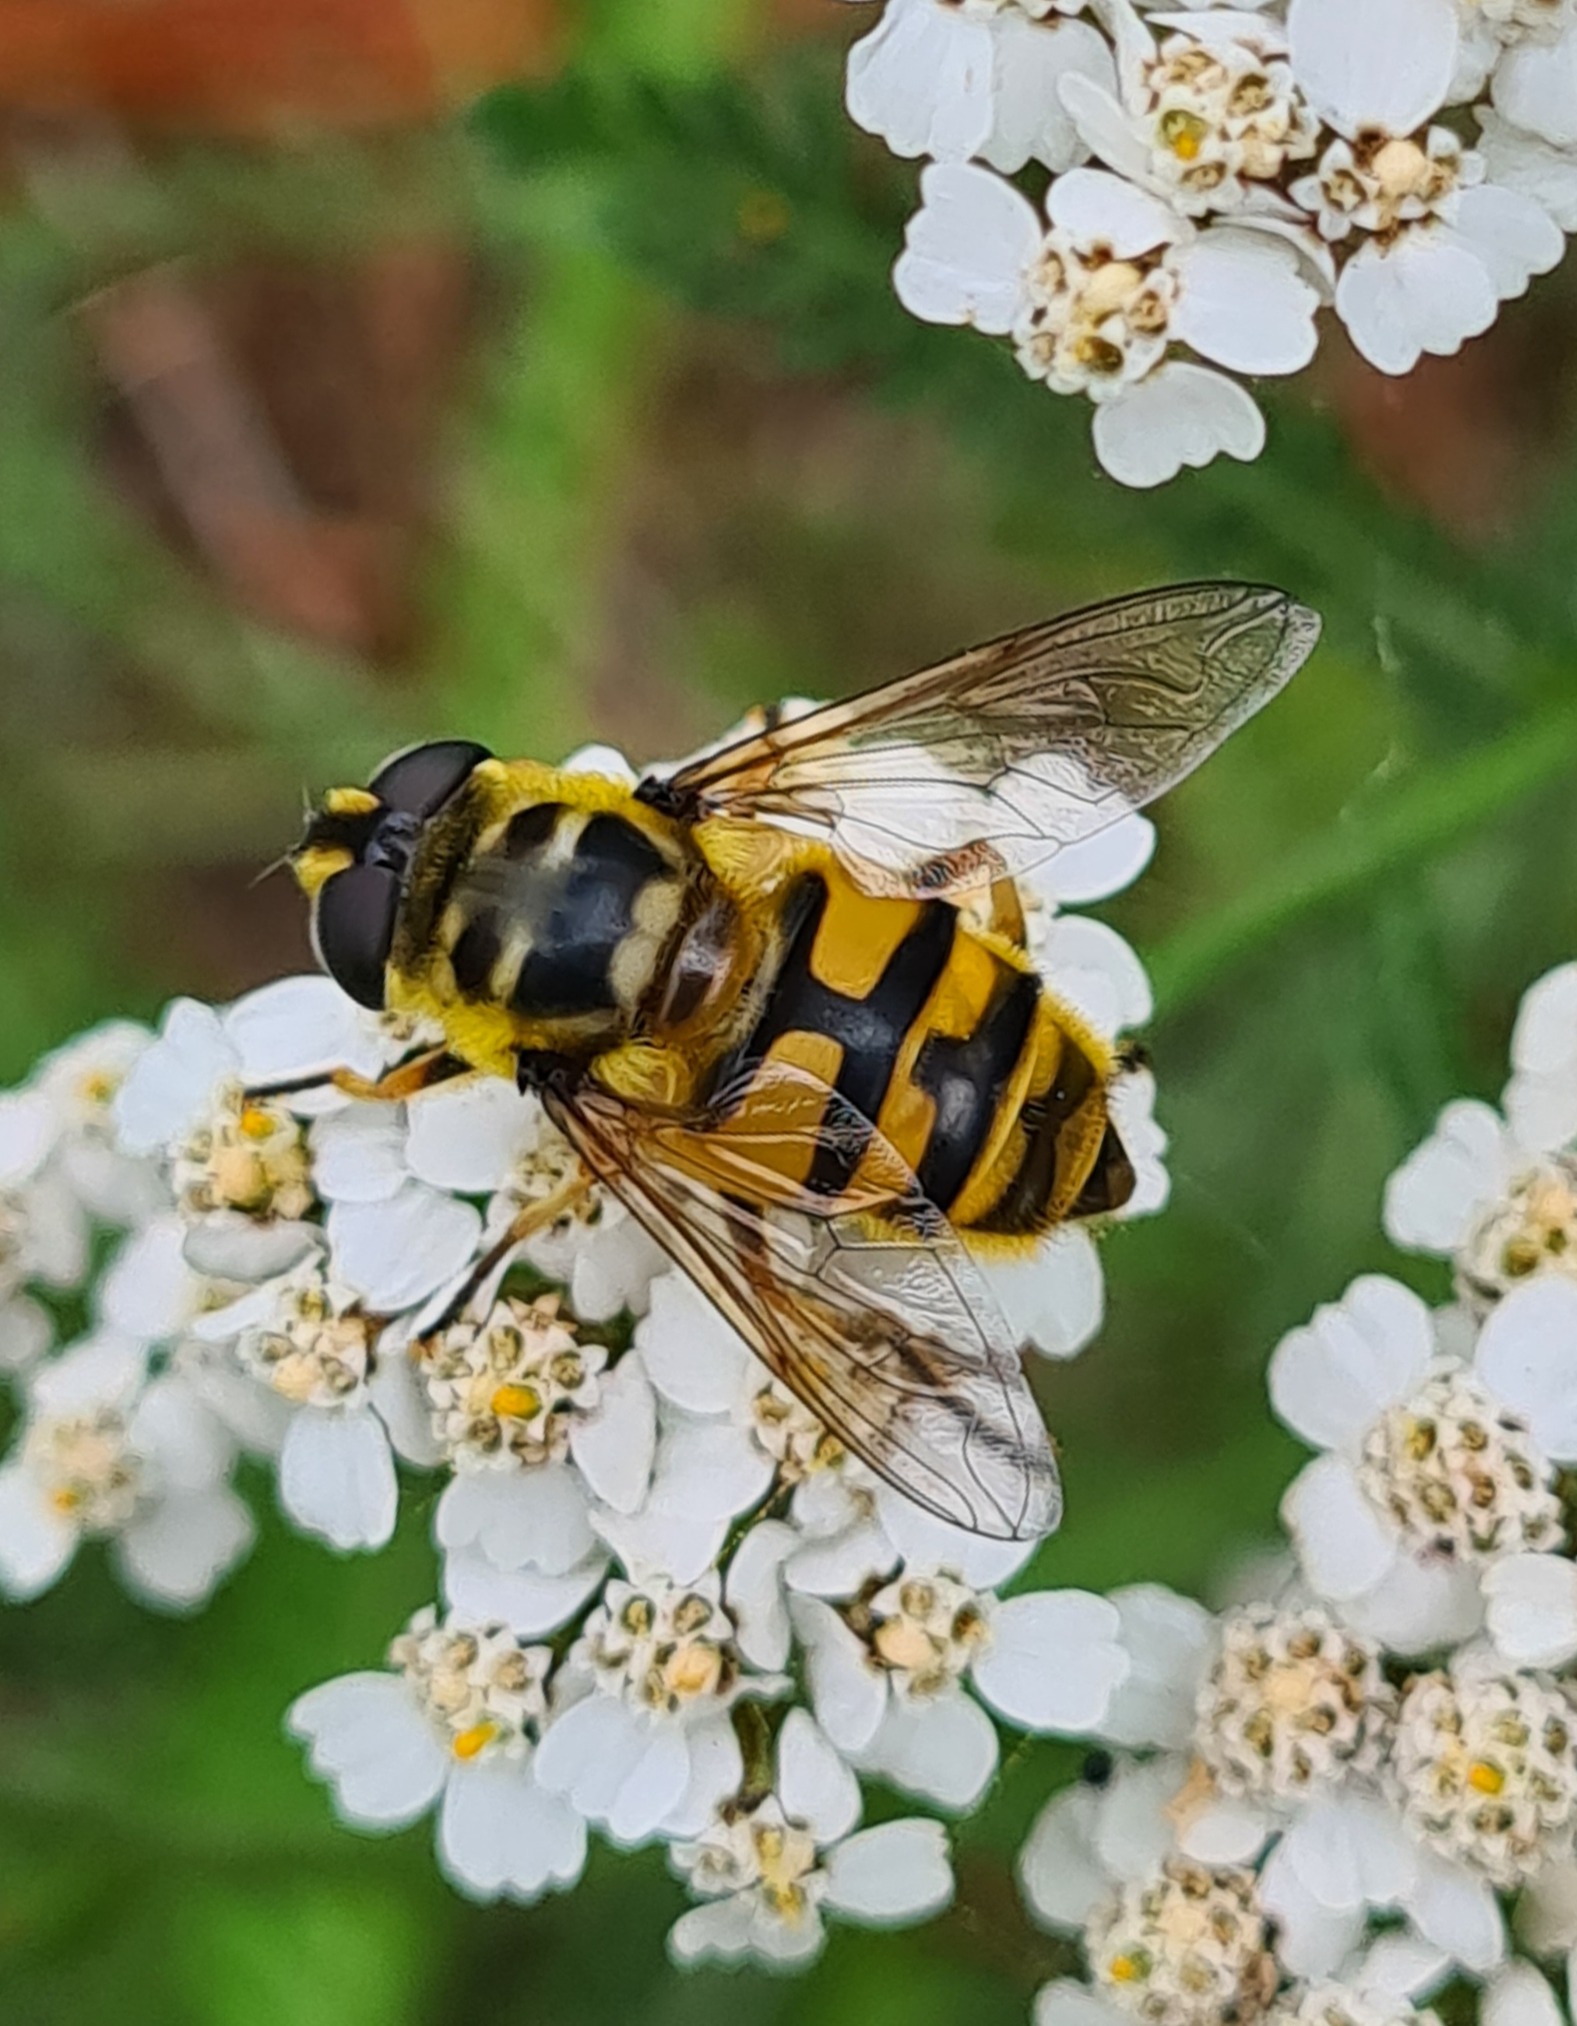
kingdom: Animalia
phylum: Arthropoda
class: Insecta
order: Diptera
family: Syrphidae
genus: Myathropa
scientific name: Myathropa florea
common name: Dødningehoved-svirreflue
